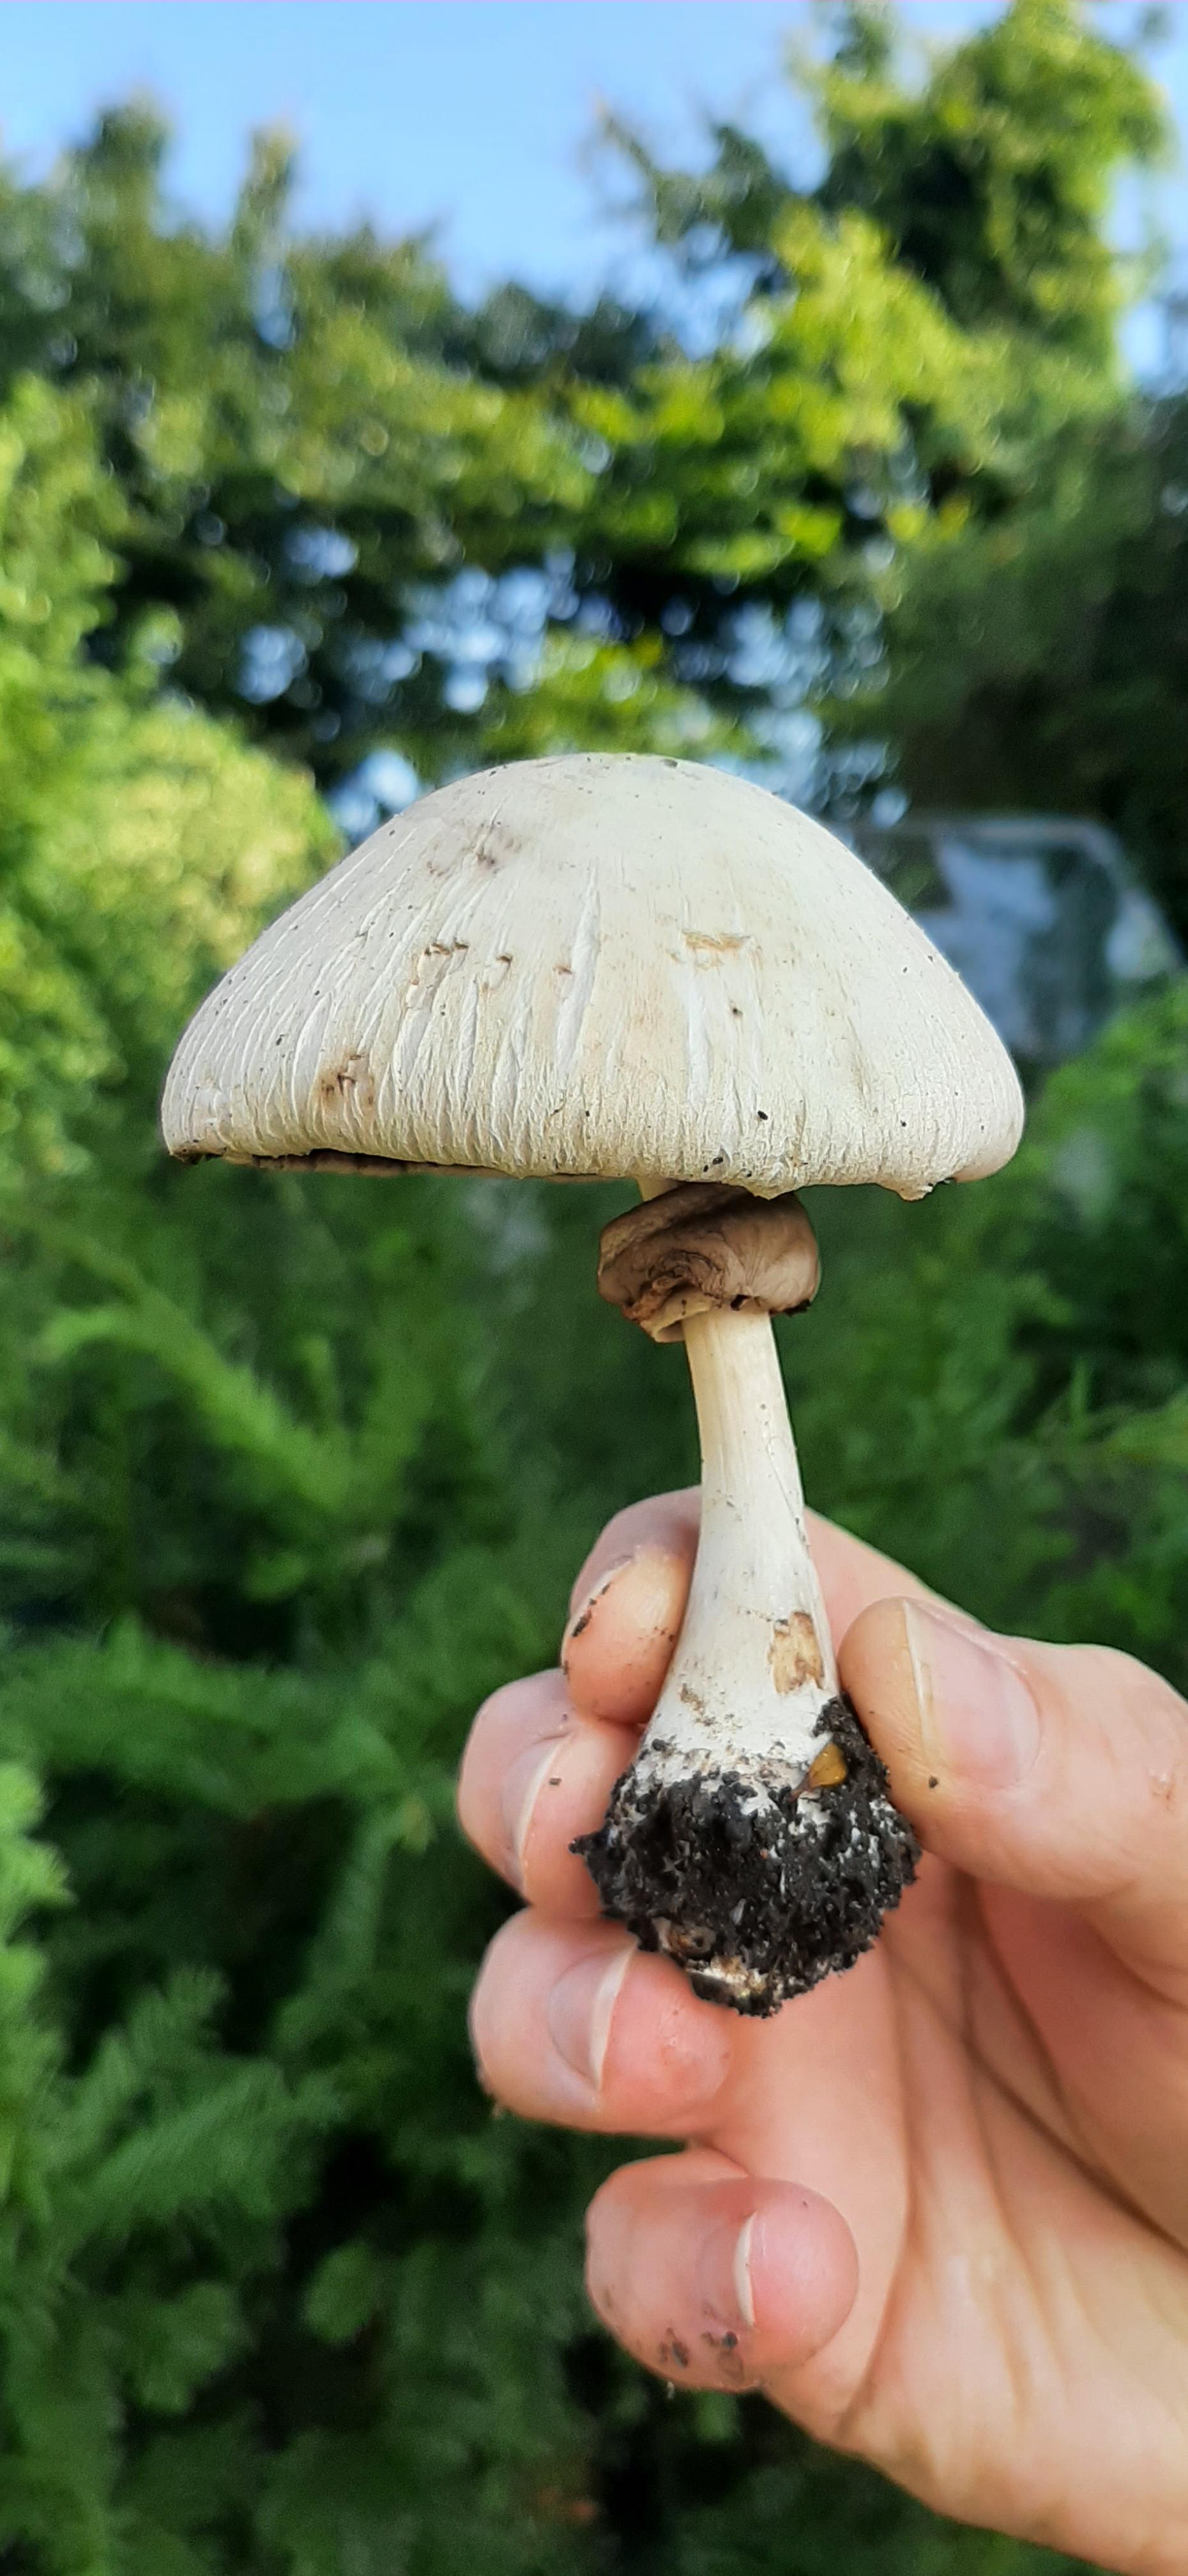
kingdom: Fungi
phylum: Basidiomycota
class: Agaricomycetes
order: Agaricales
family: Agaricaceae
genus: Agaricus
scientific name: Agaricus
